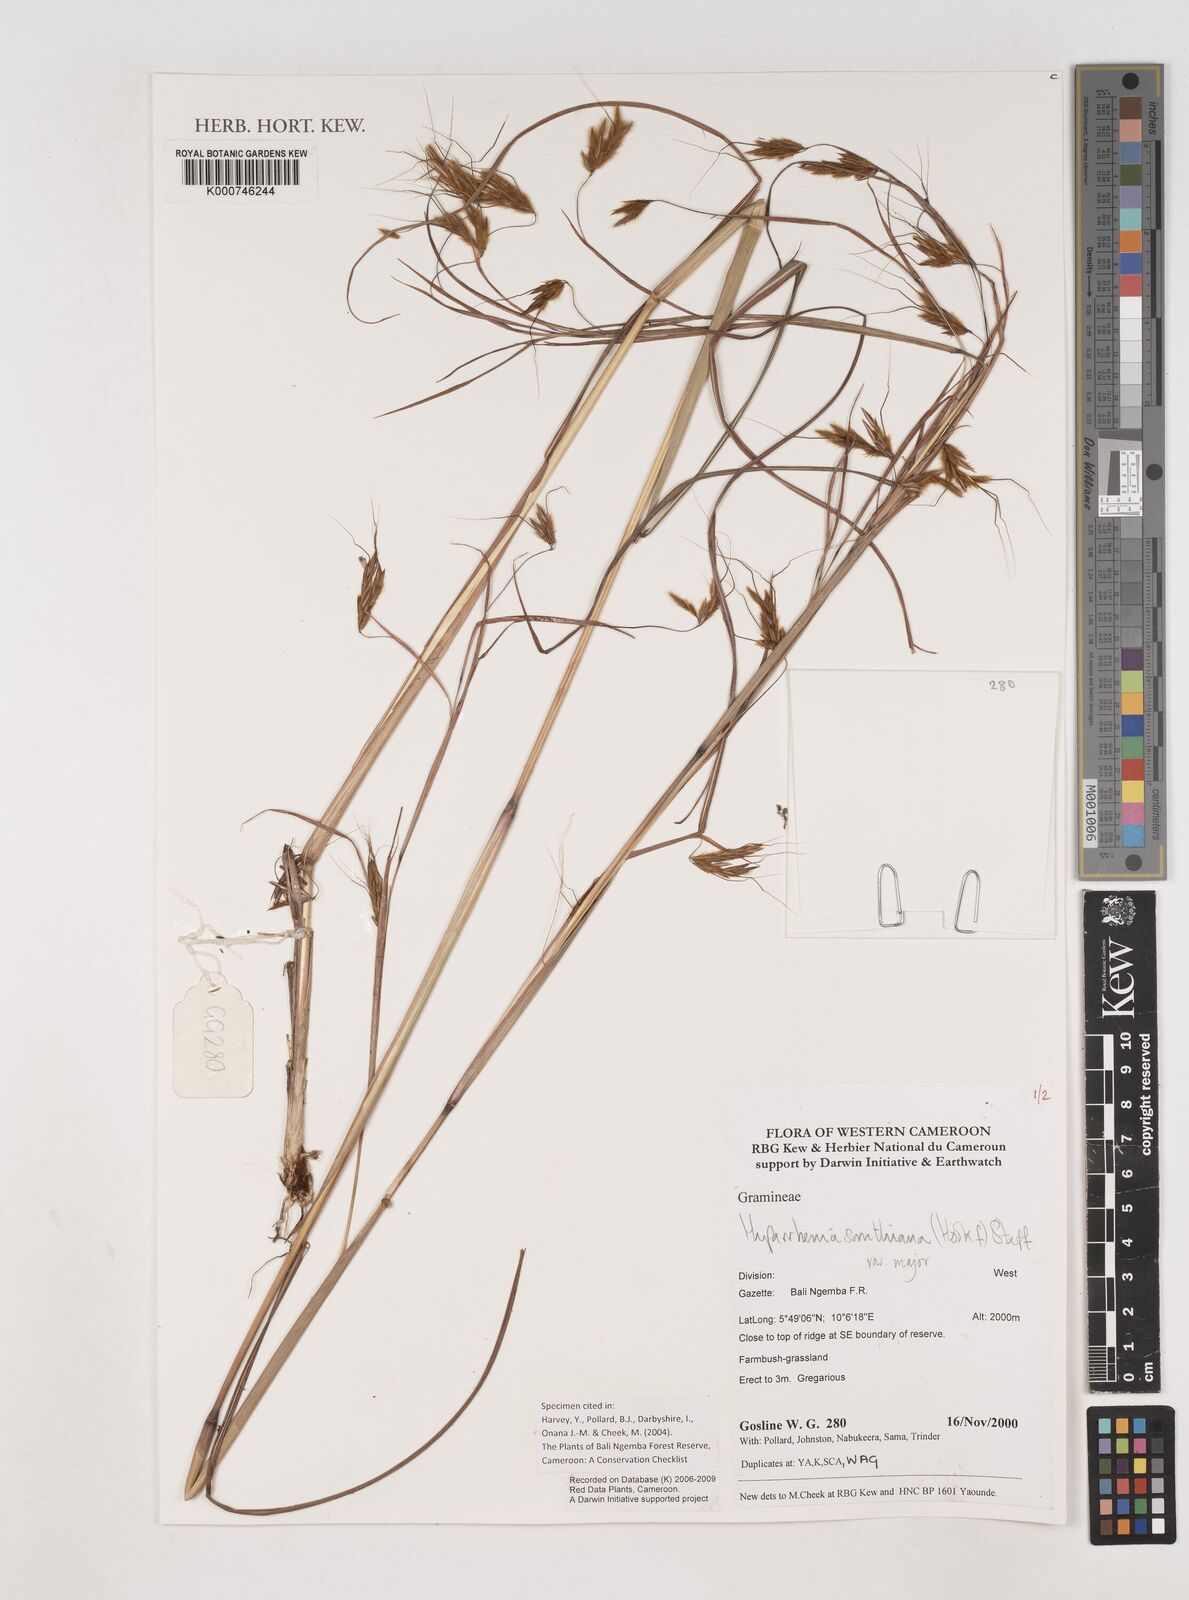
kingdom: Plantae
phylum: Tracheophyta
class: Liliopsida
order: Poales
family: Poaceae
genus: Hyparrhenia
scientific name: Hyparrhenia smithiana
